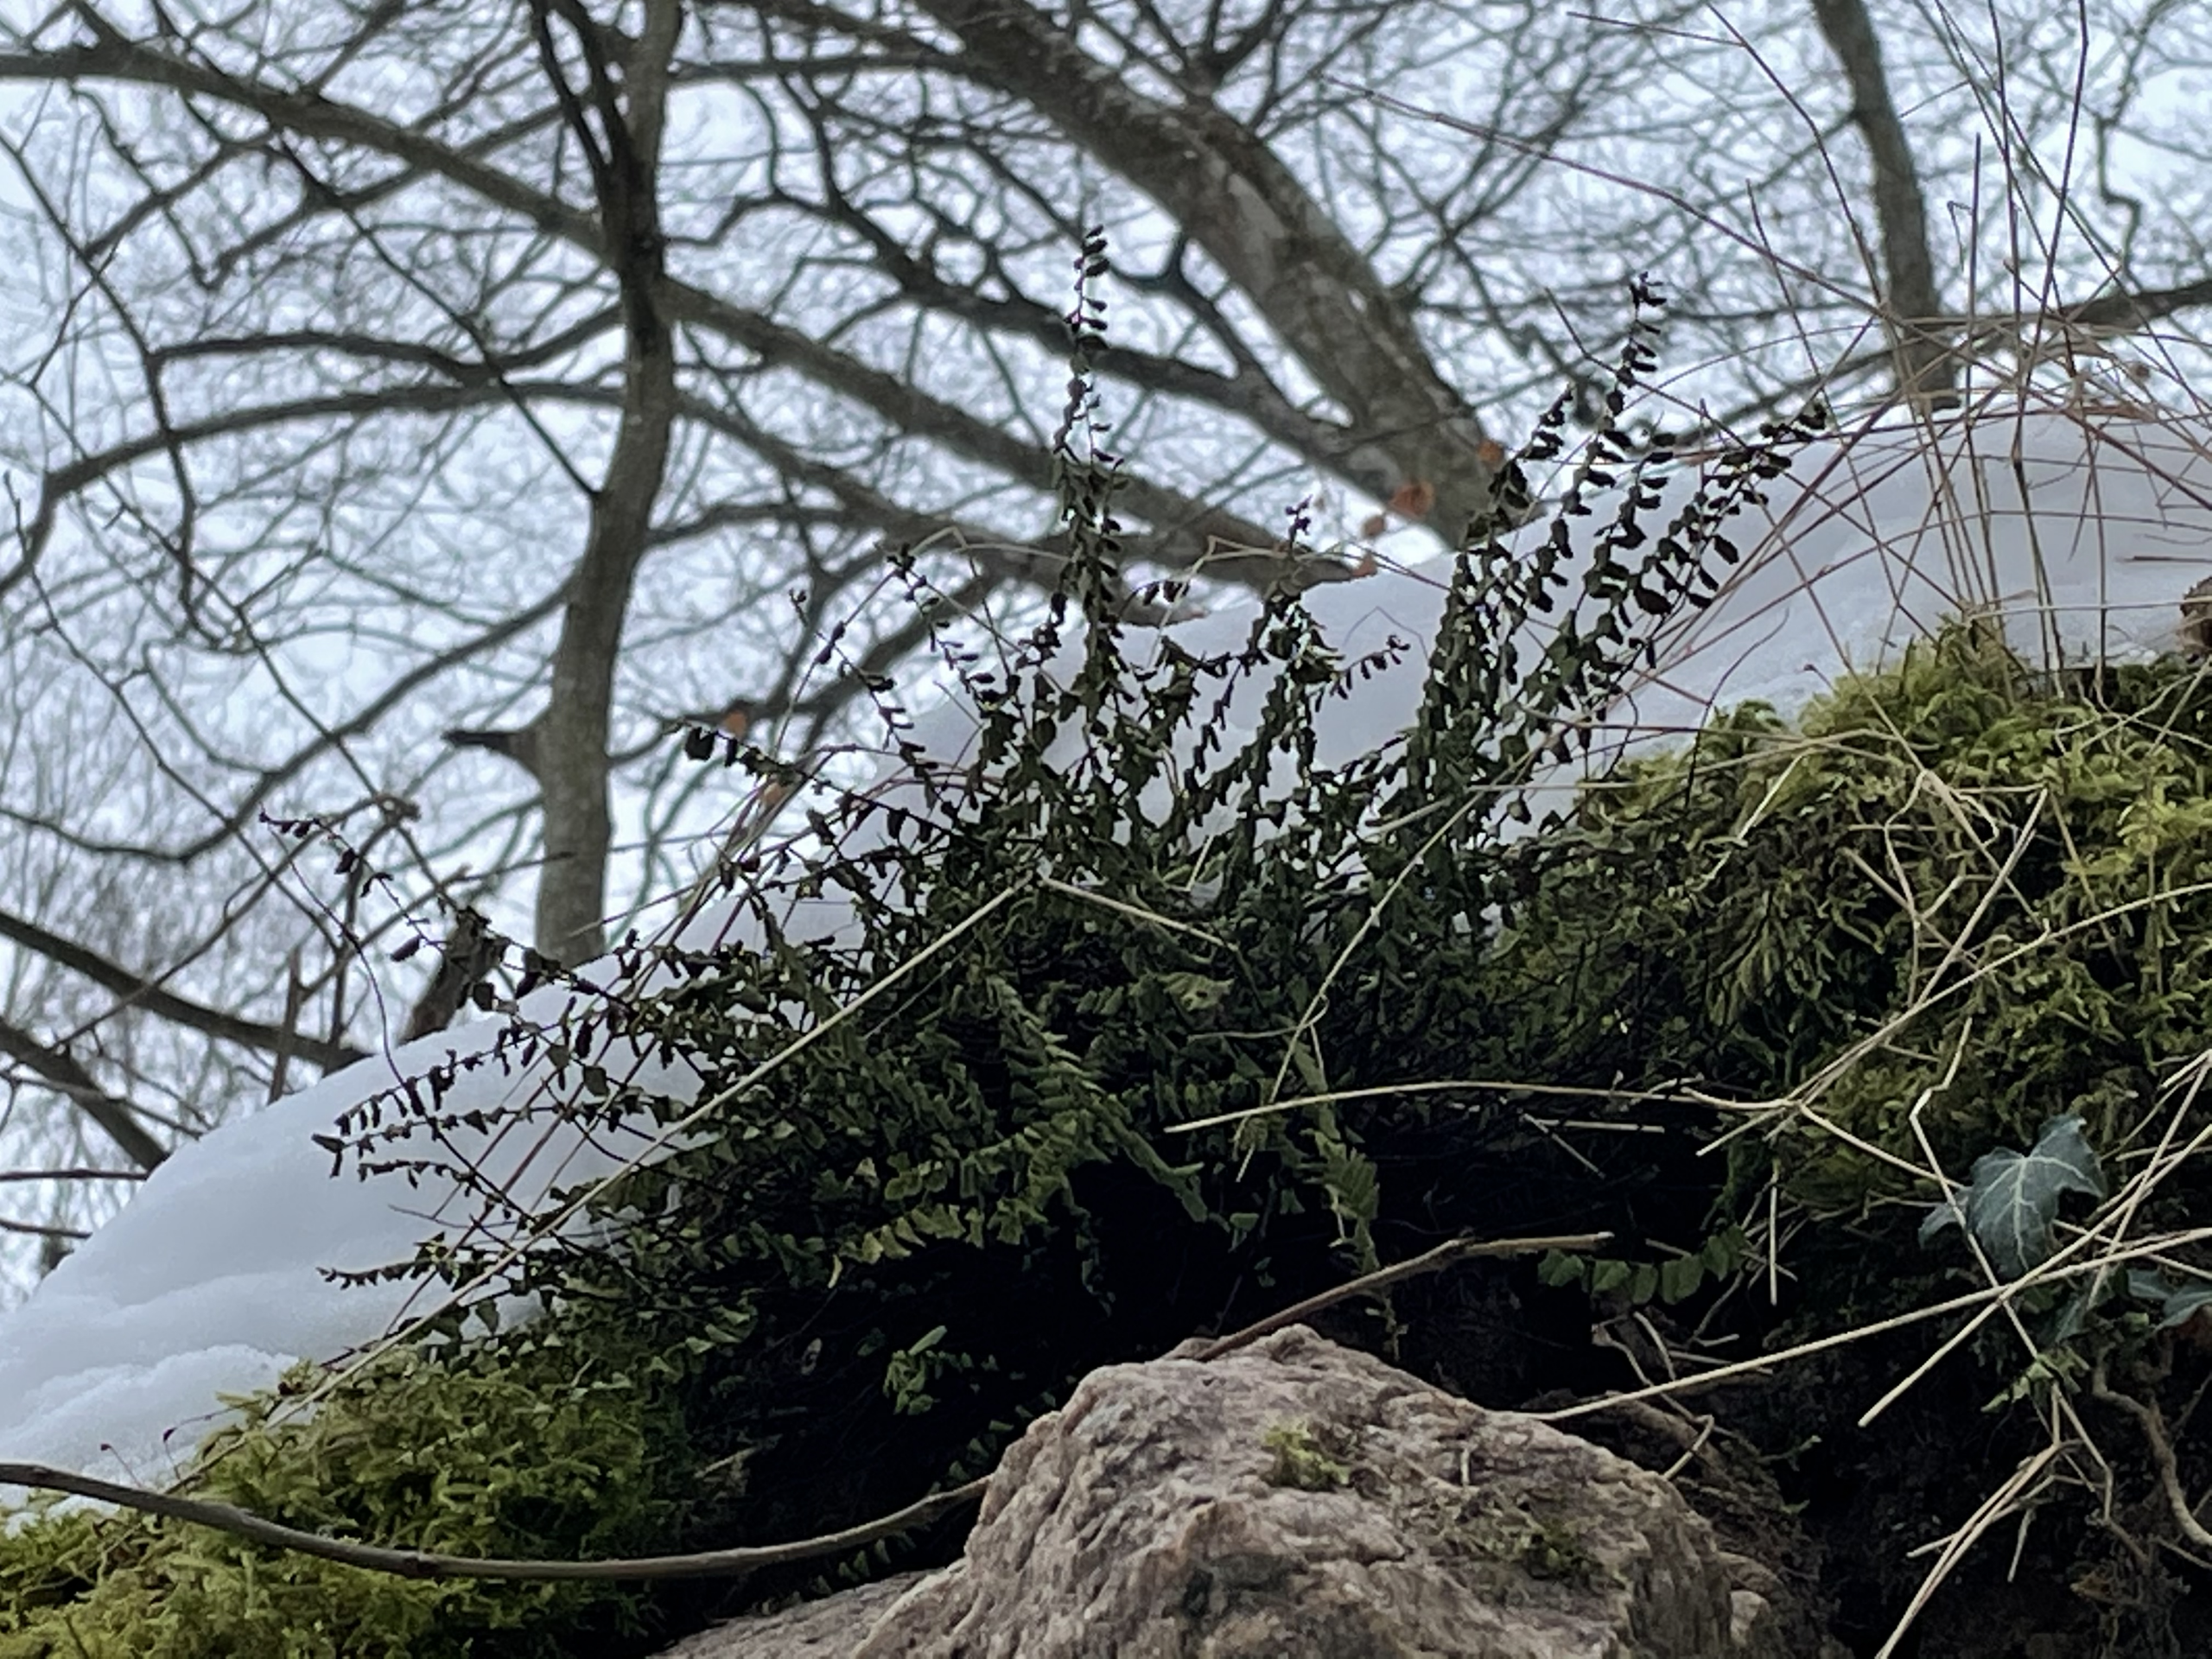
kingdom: Plantae
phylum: Tracheophyta
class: Polypodiopsida
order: Polypodiales
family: Aspleniaceae
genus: Asplenium
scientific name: Asplenium trichomanes
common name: Rundfinnet radeløv
